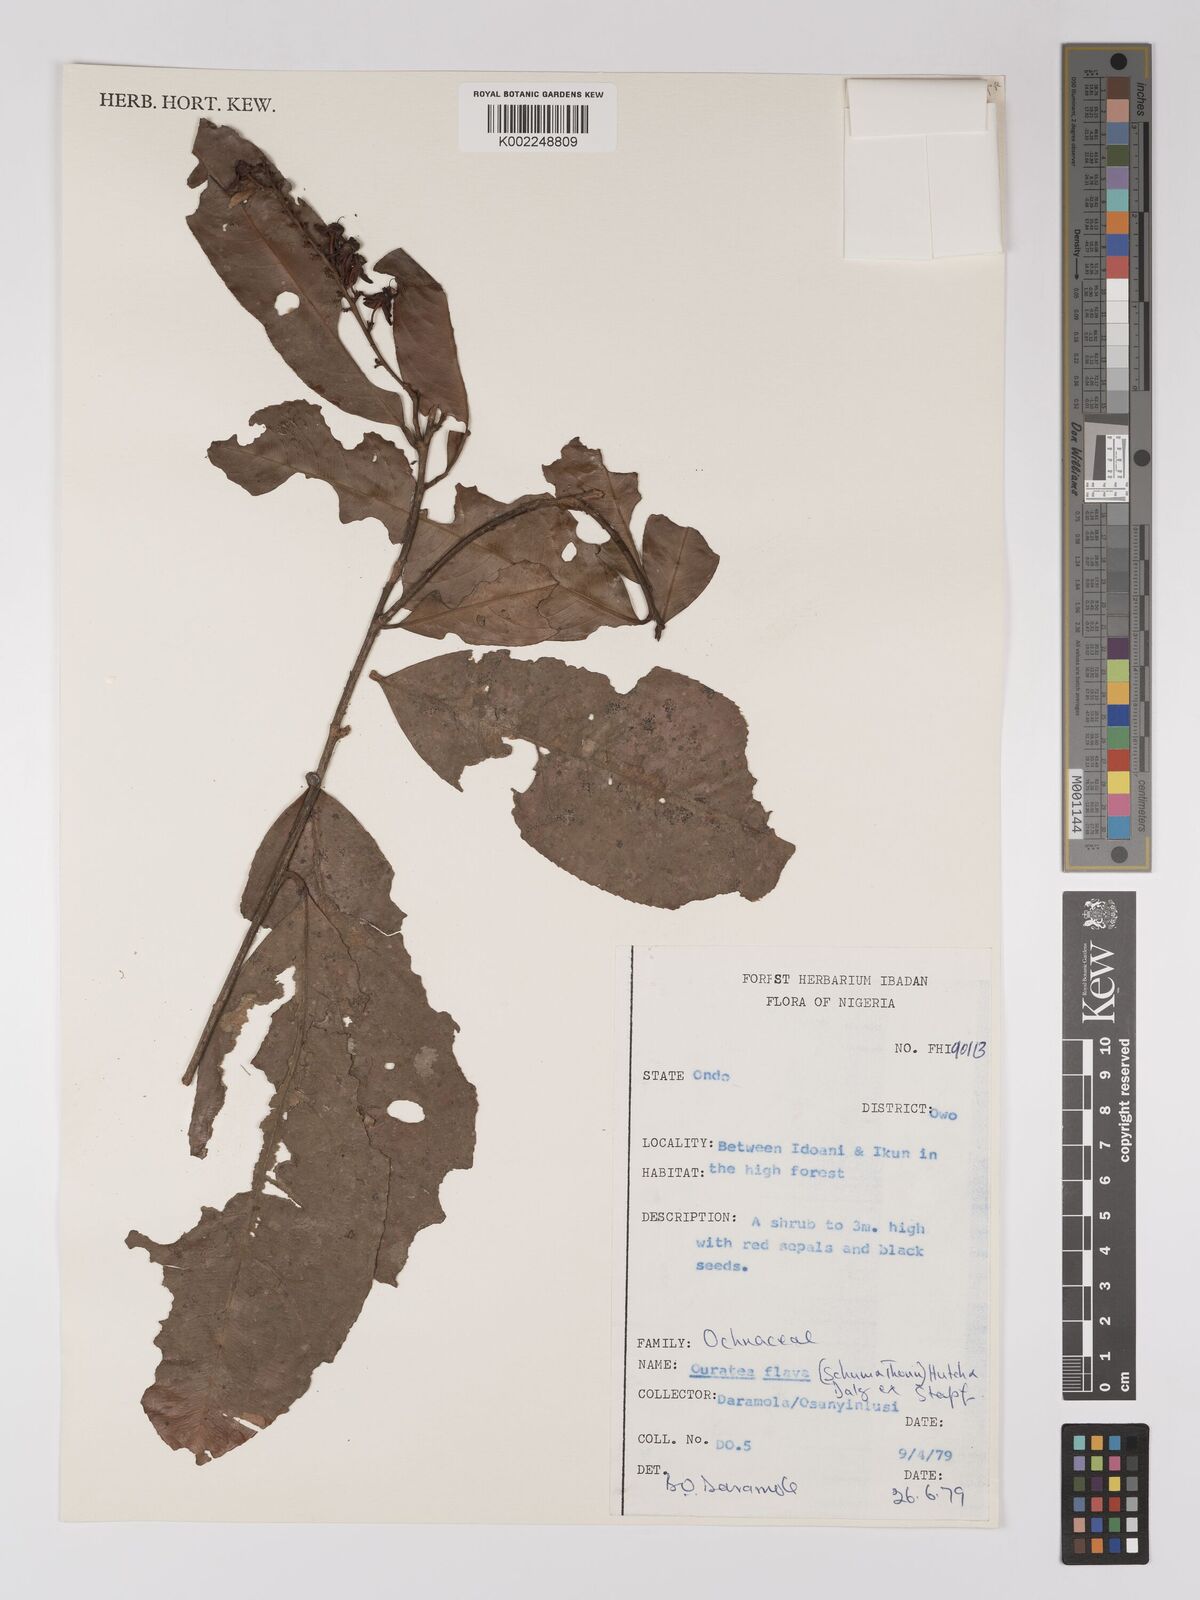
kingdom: Plantae
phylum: Tracheophyta
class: Magnoliopsida
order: Malpighiales
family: Ochnaceae
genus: Campylospermum
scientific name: Campylospermum flavum
